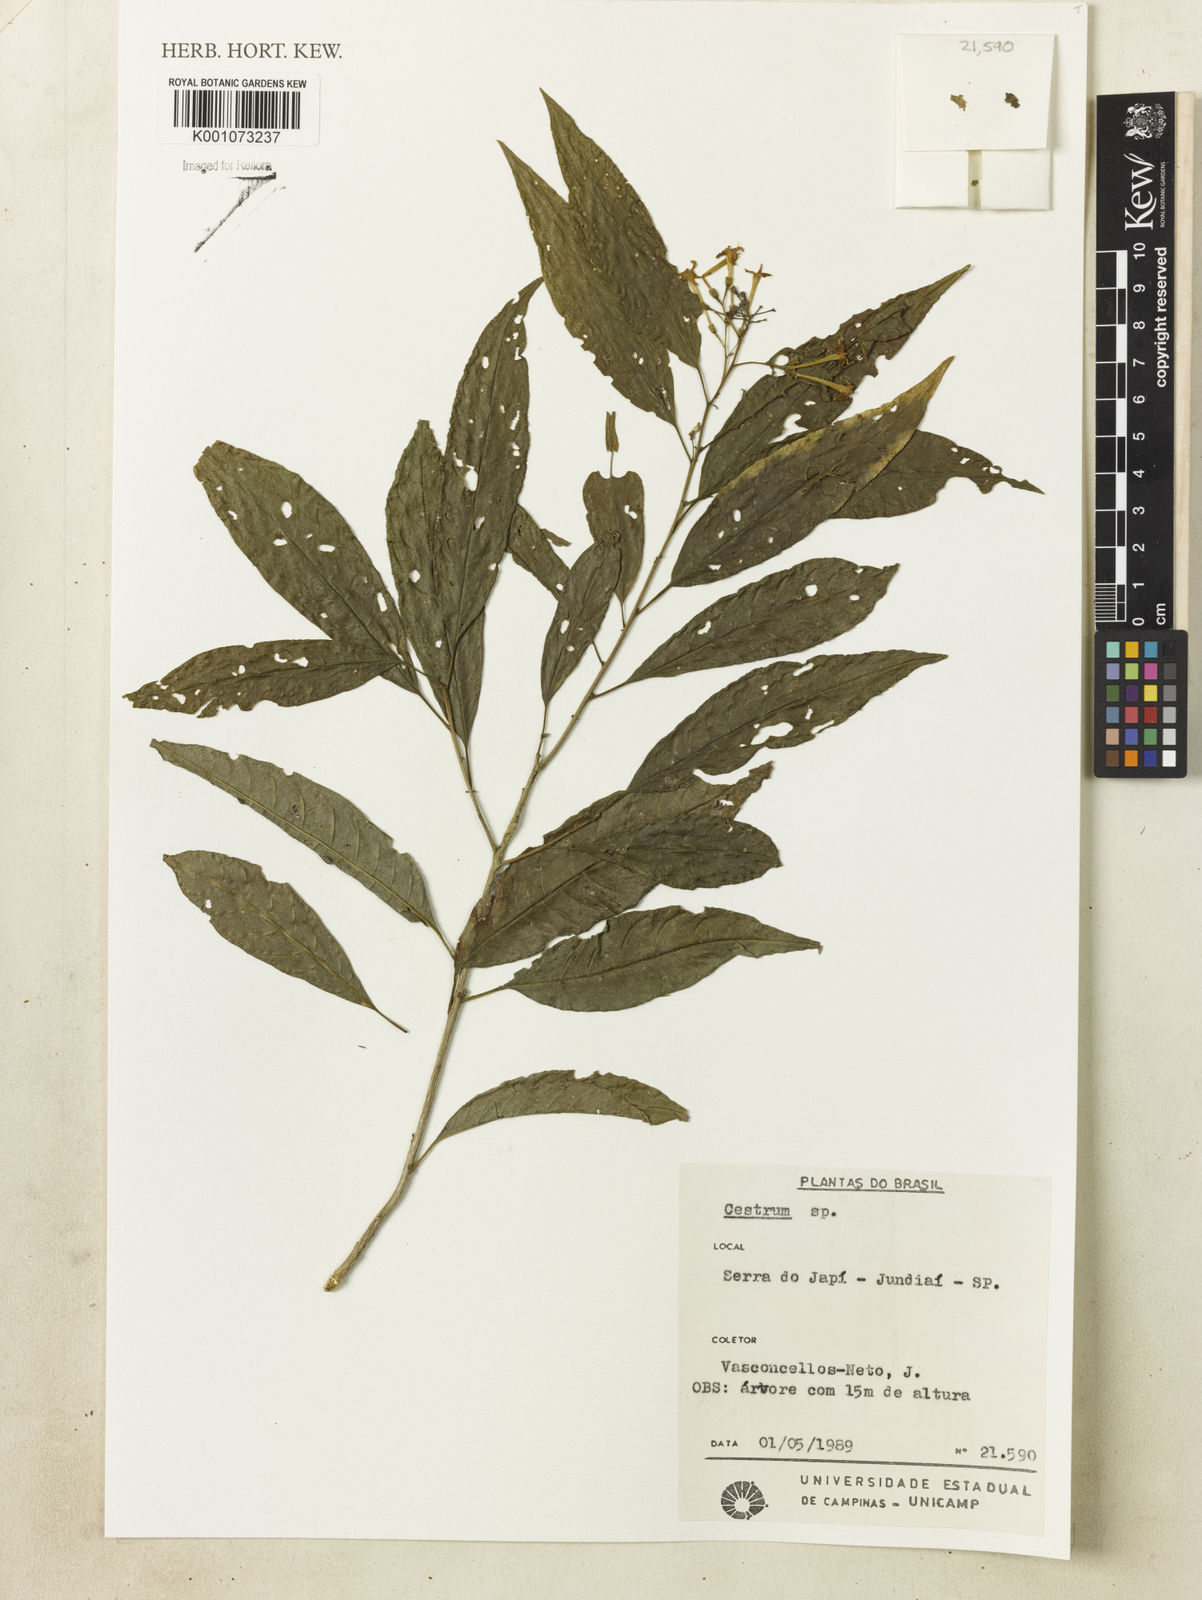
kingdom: Plantae
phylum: Tracheophyta
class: Magnoliopsida
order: Solanales
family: Solanaceae
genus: Cestrum
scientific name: Cestrum
